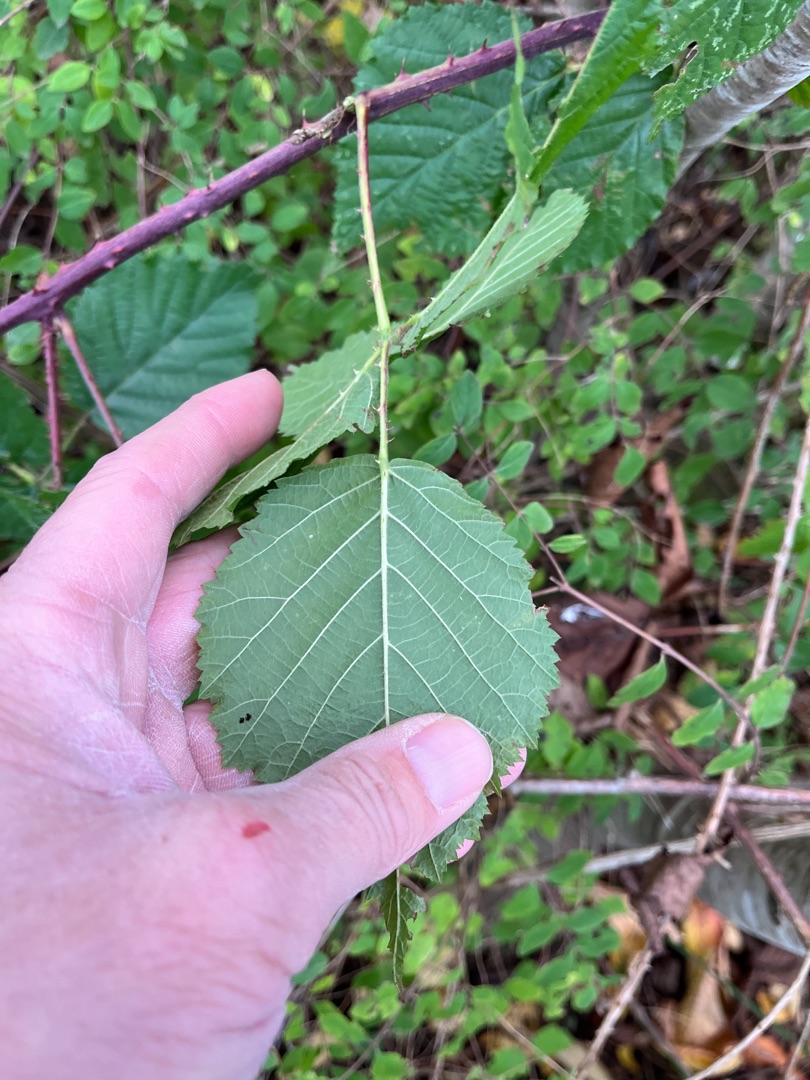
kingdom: Plantae
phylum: Tracheophyta
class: Magnoliopsida
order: Rosales
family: Rosaceae
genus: Rubus
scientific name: Rubus haesitans
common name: Tøvende hasselbrombær
